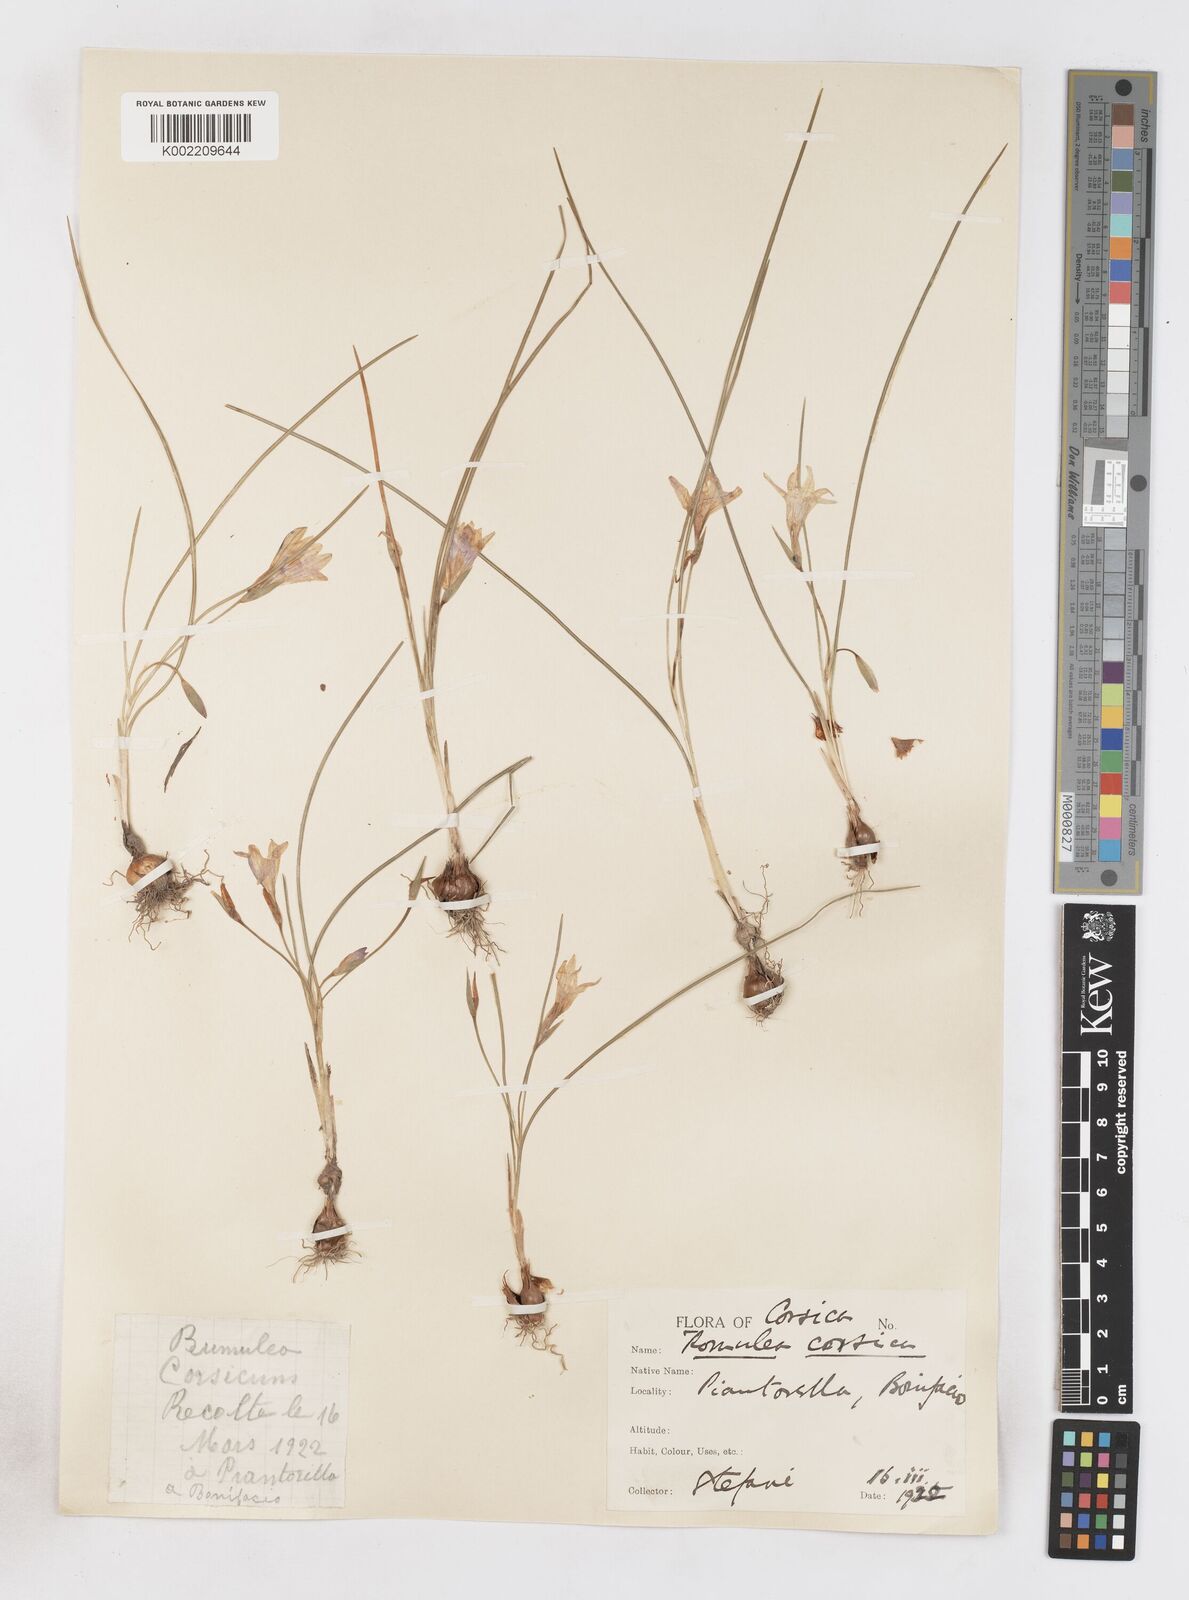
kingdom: Plantae
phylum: Tracheophyta
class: Liliopsida
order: Asparagales
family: Iridaceae
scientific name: Iridaceae
